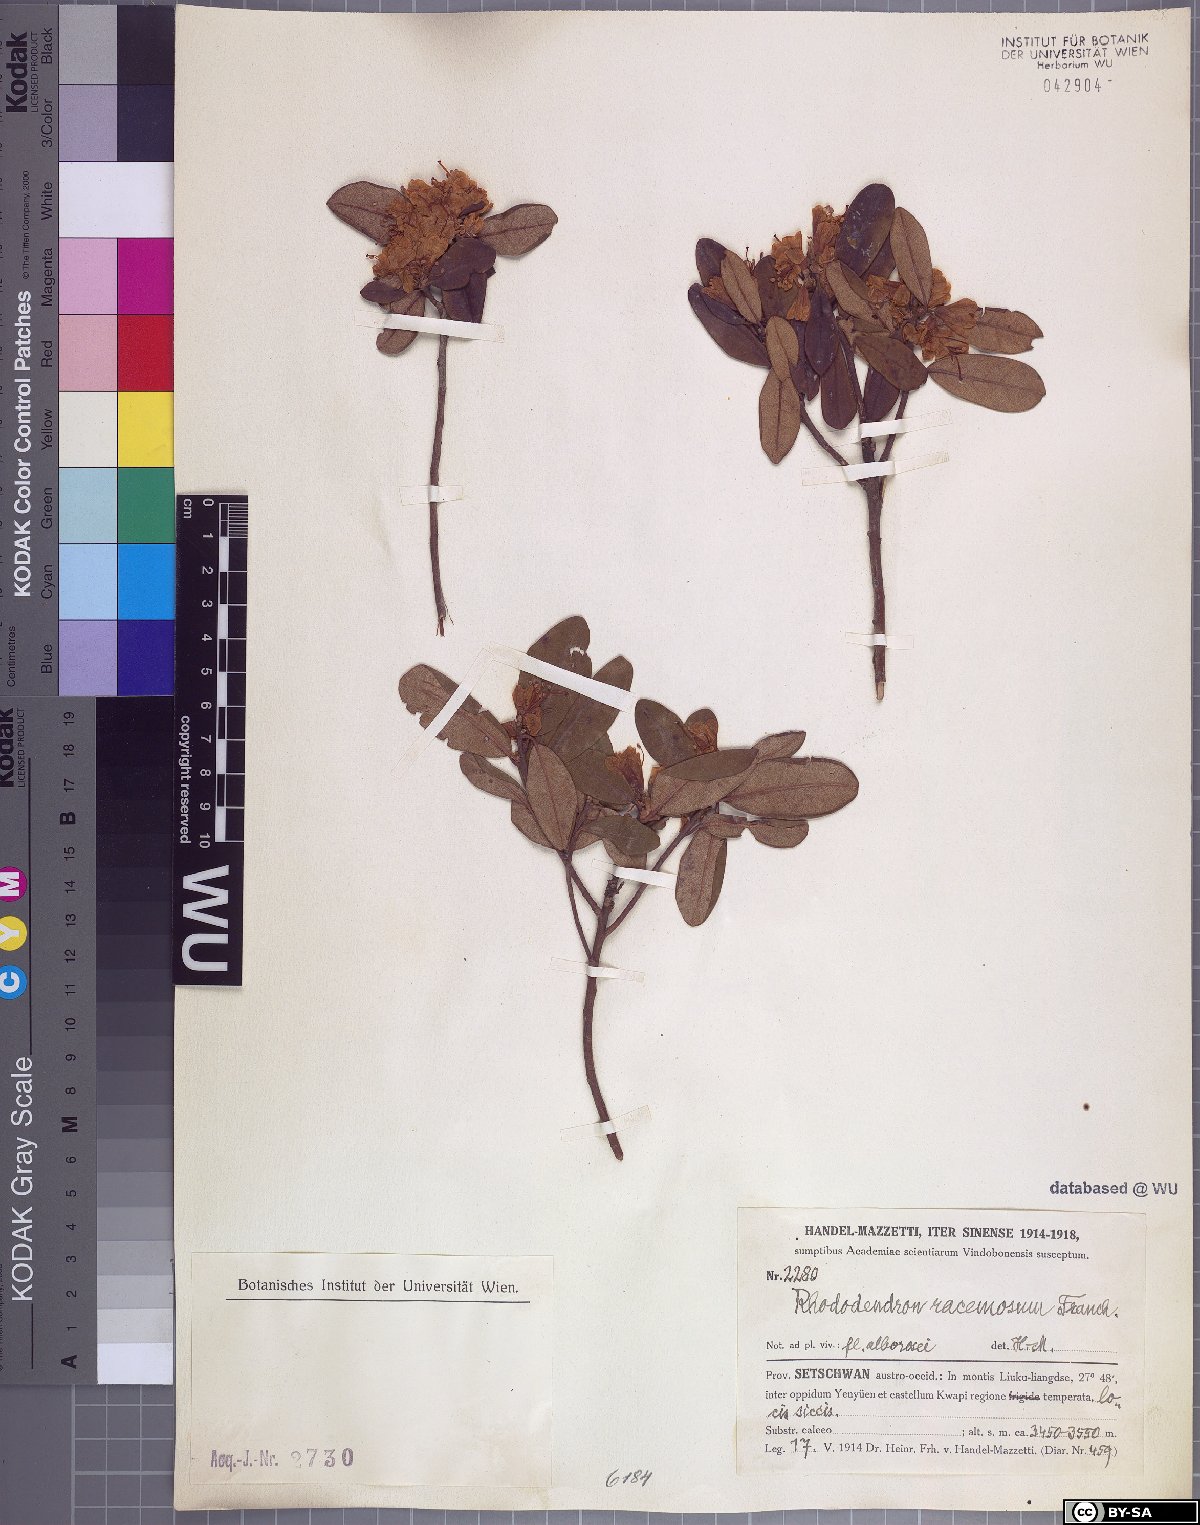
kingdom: Plantae
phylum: Tracheophyta
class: Magnoliopsida
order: Ericales
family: Ericaceae
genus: Rhododendron
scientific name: Rhododendron racemosum
